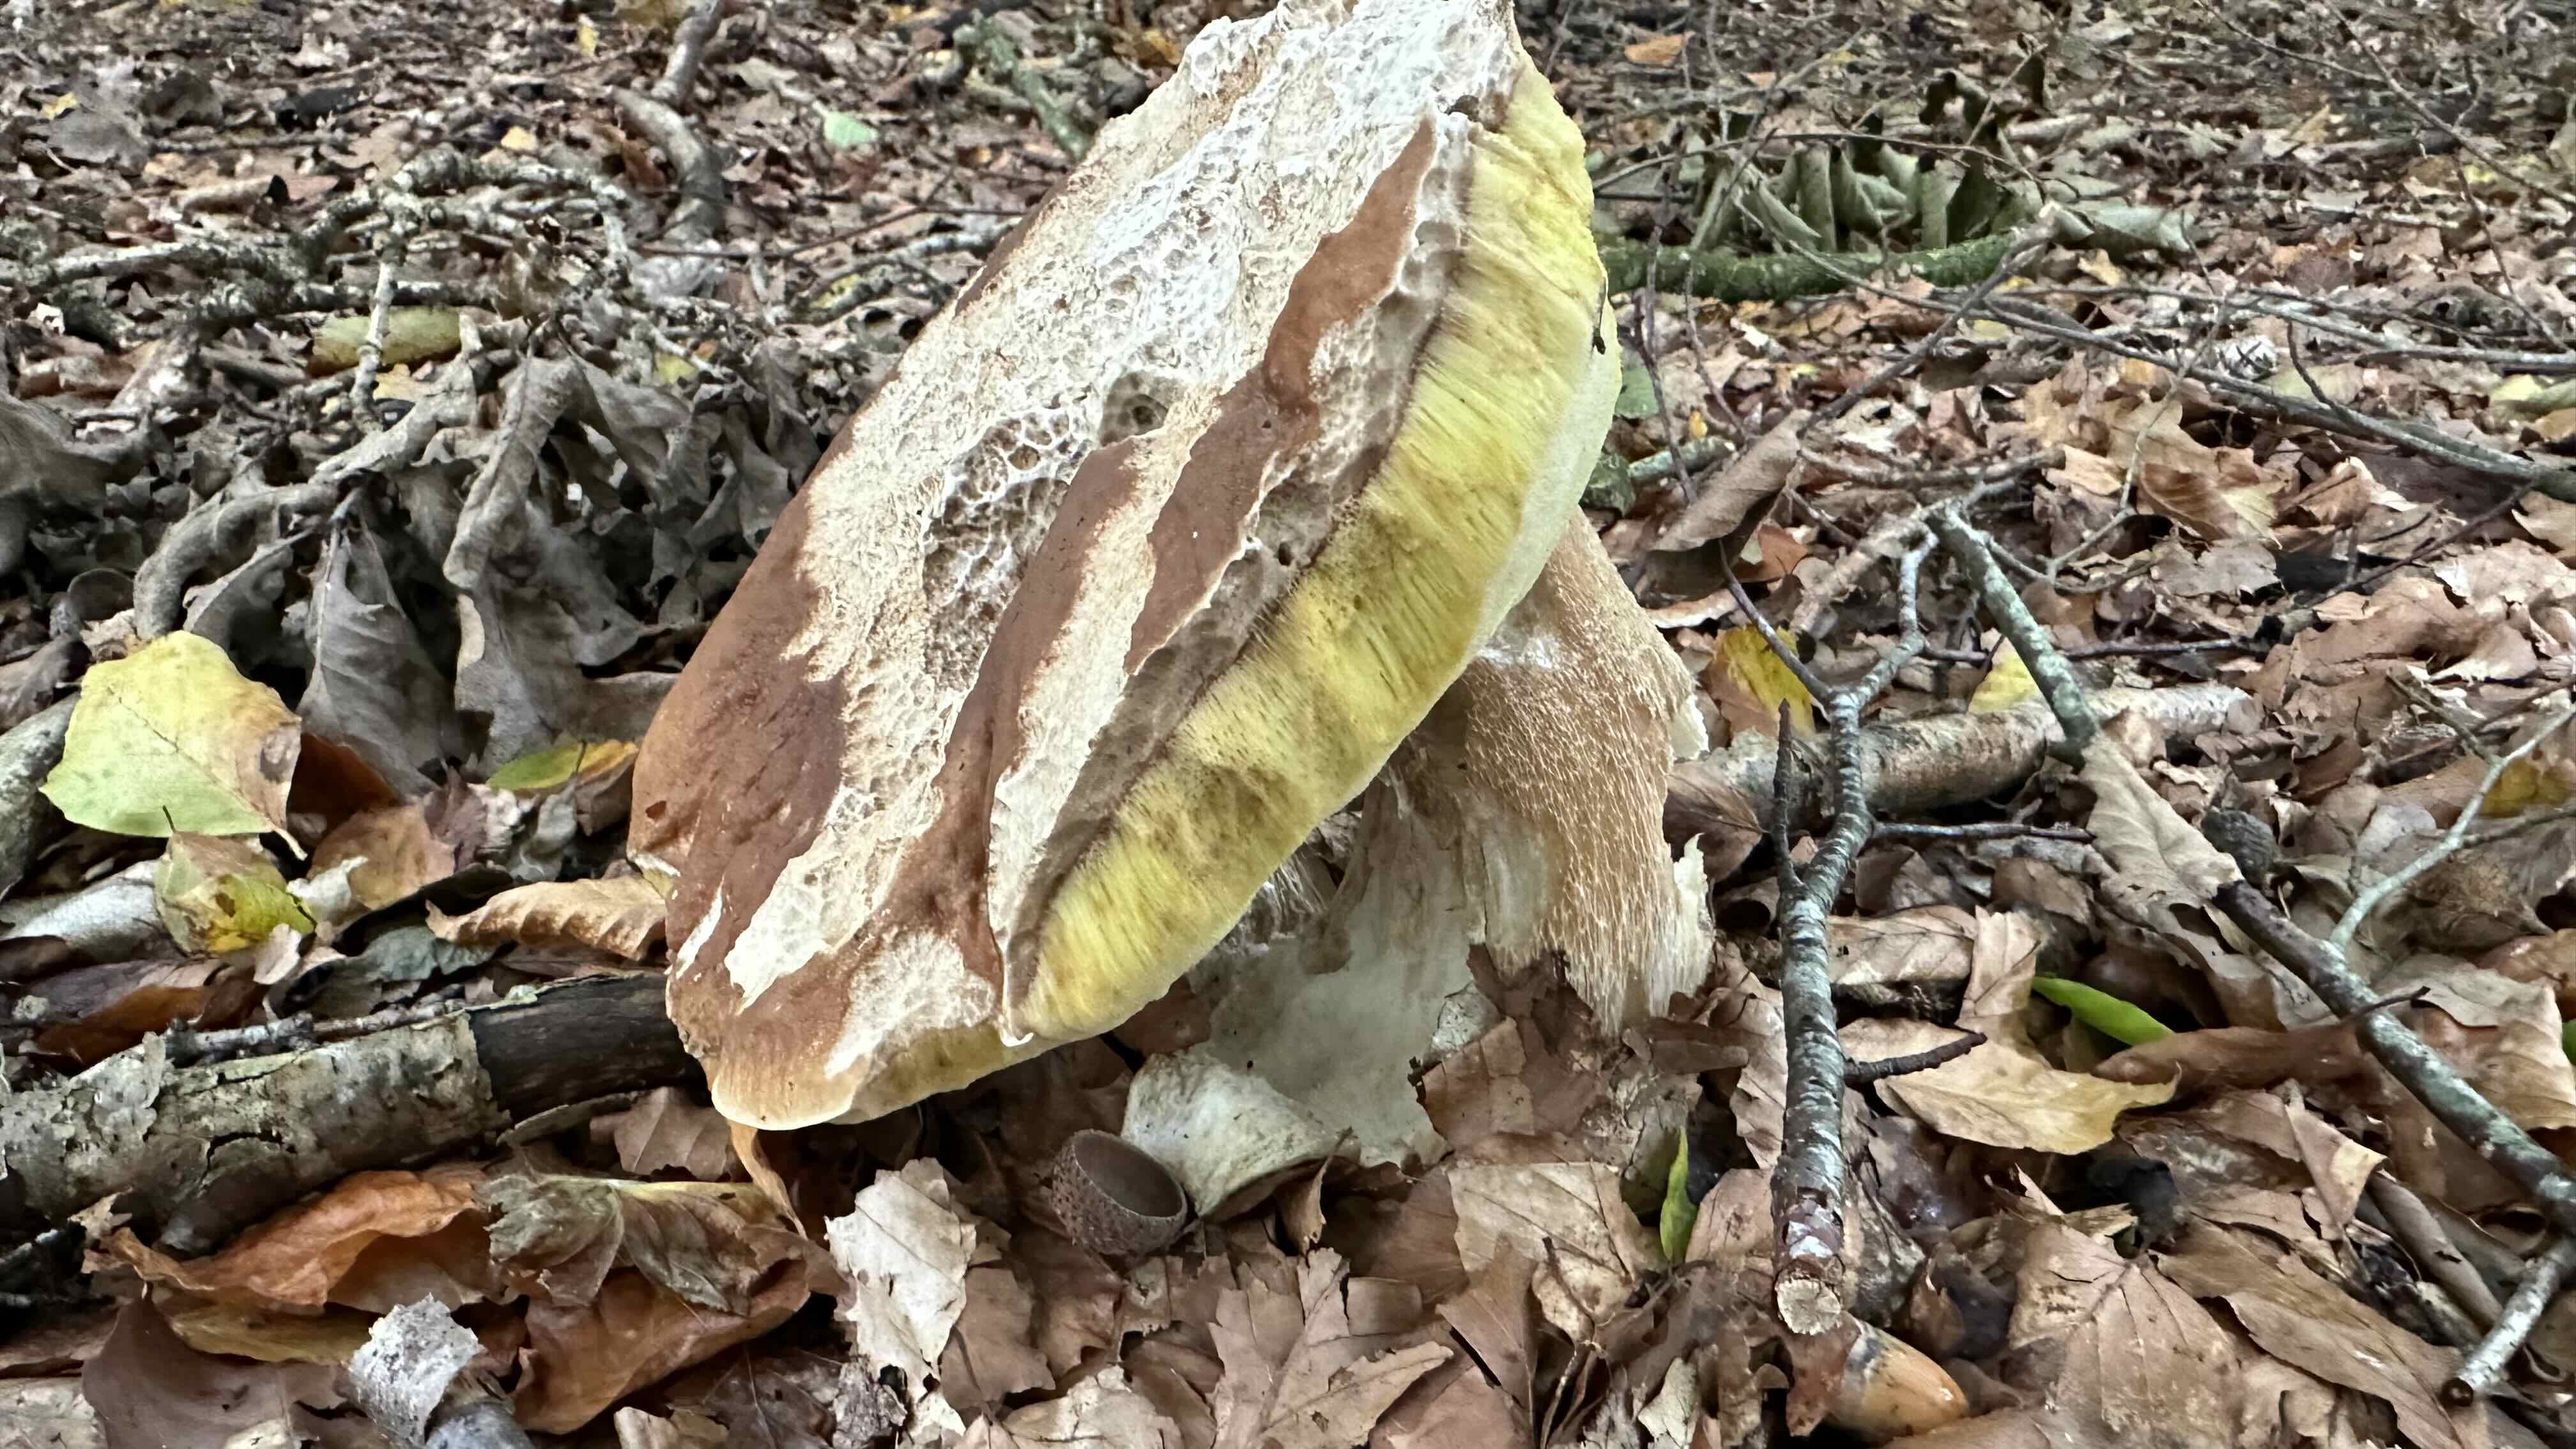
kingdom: Fungi
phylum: Basidiomycota
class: Agaricomycetes
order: Boletales
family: Boletaceae
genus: Boletus
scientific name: Boletus edulis
